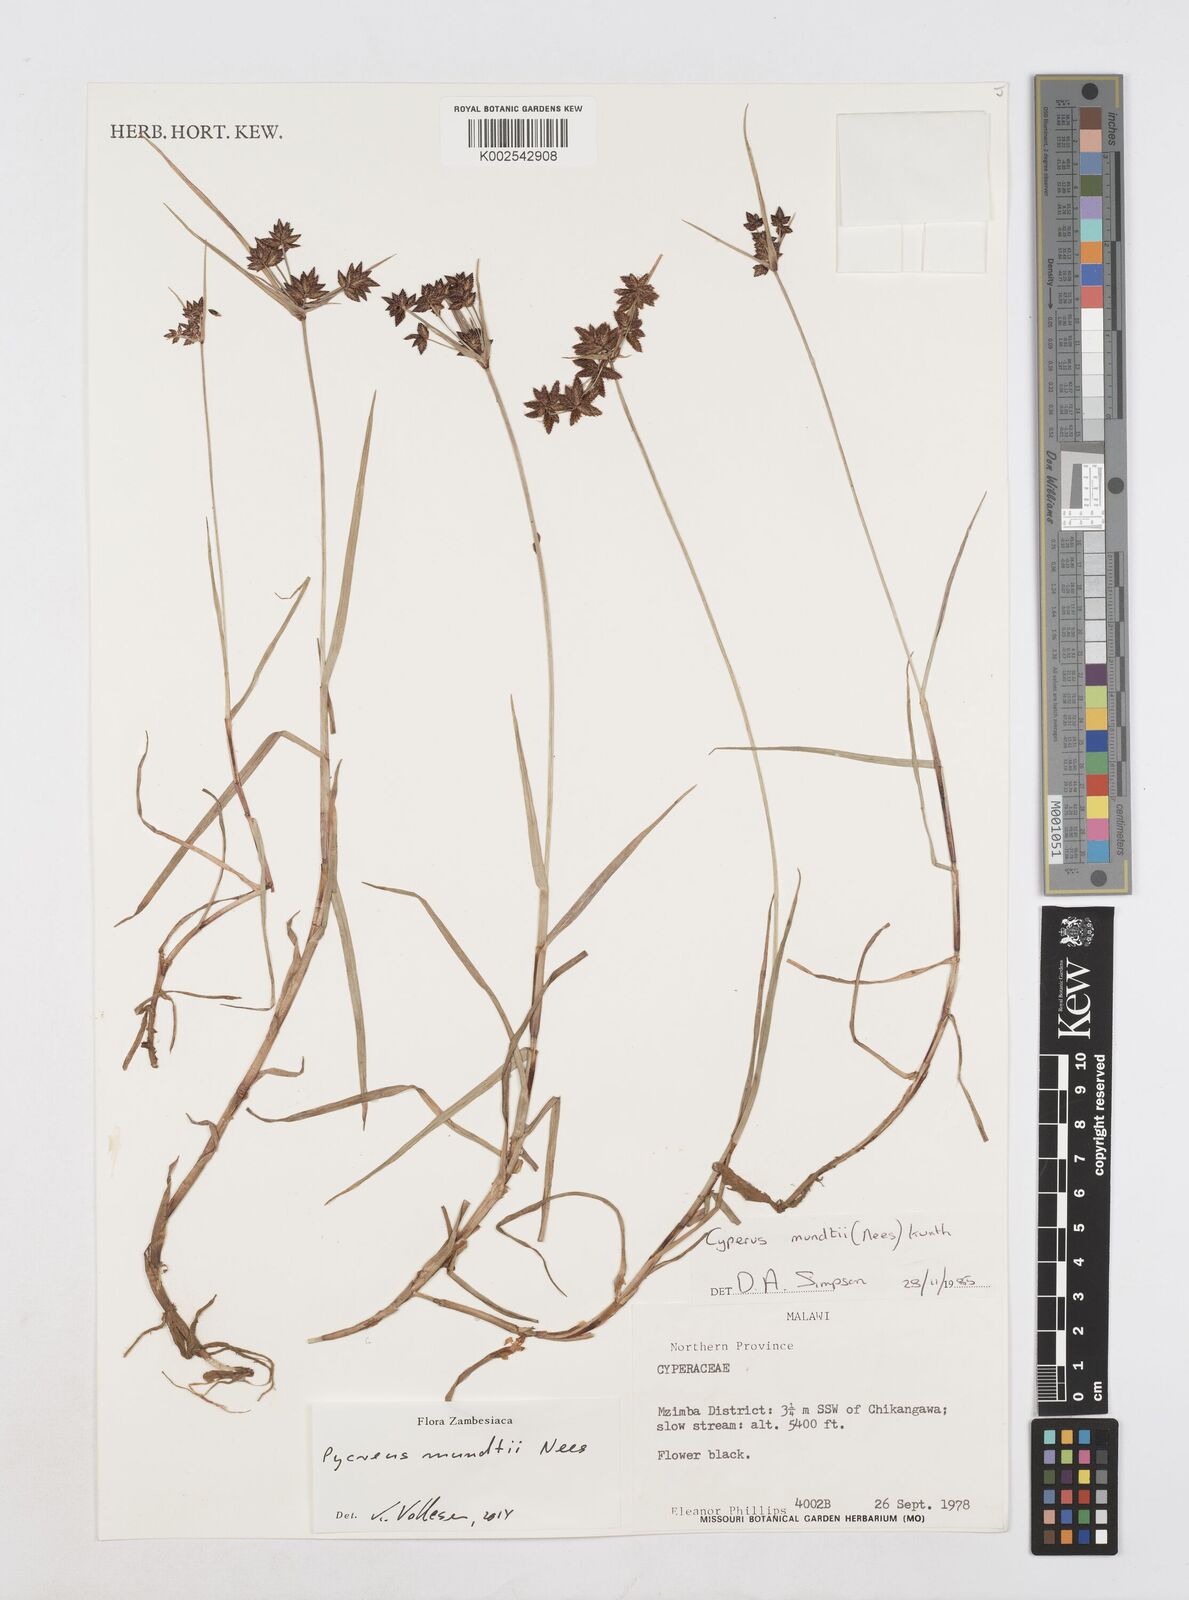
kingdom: Plantae
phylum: Tracheophyta
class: Liliopsida
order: Poales
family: Cyperaceae
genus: Cyperus
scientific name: Cyperus mundii
